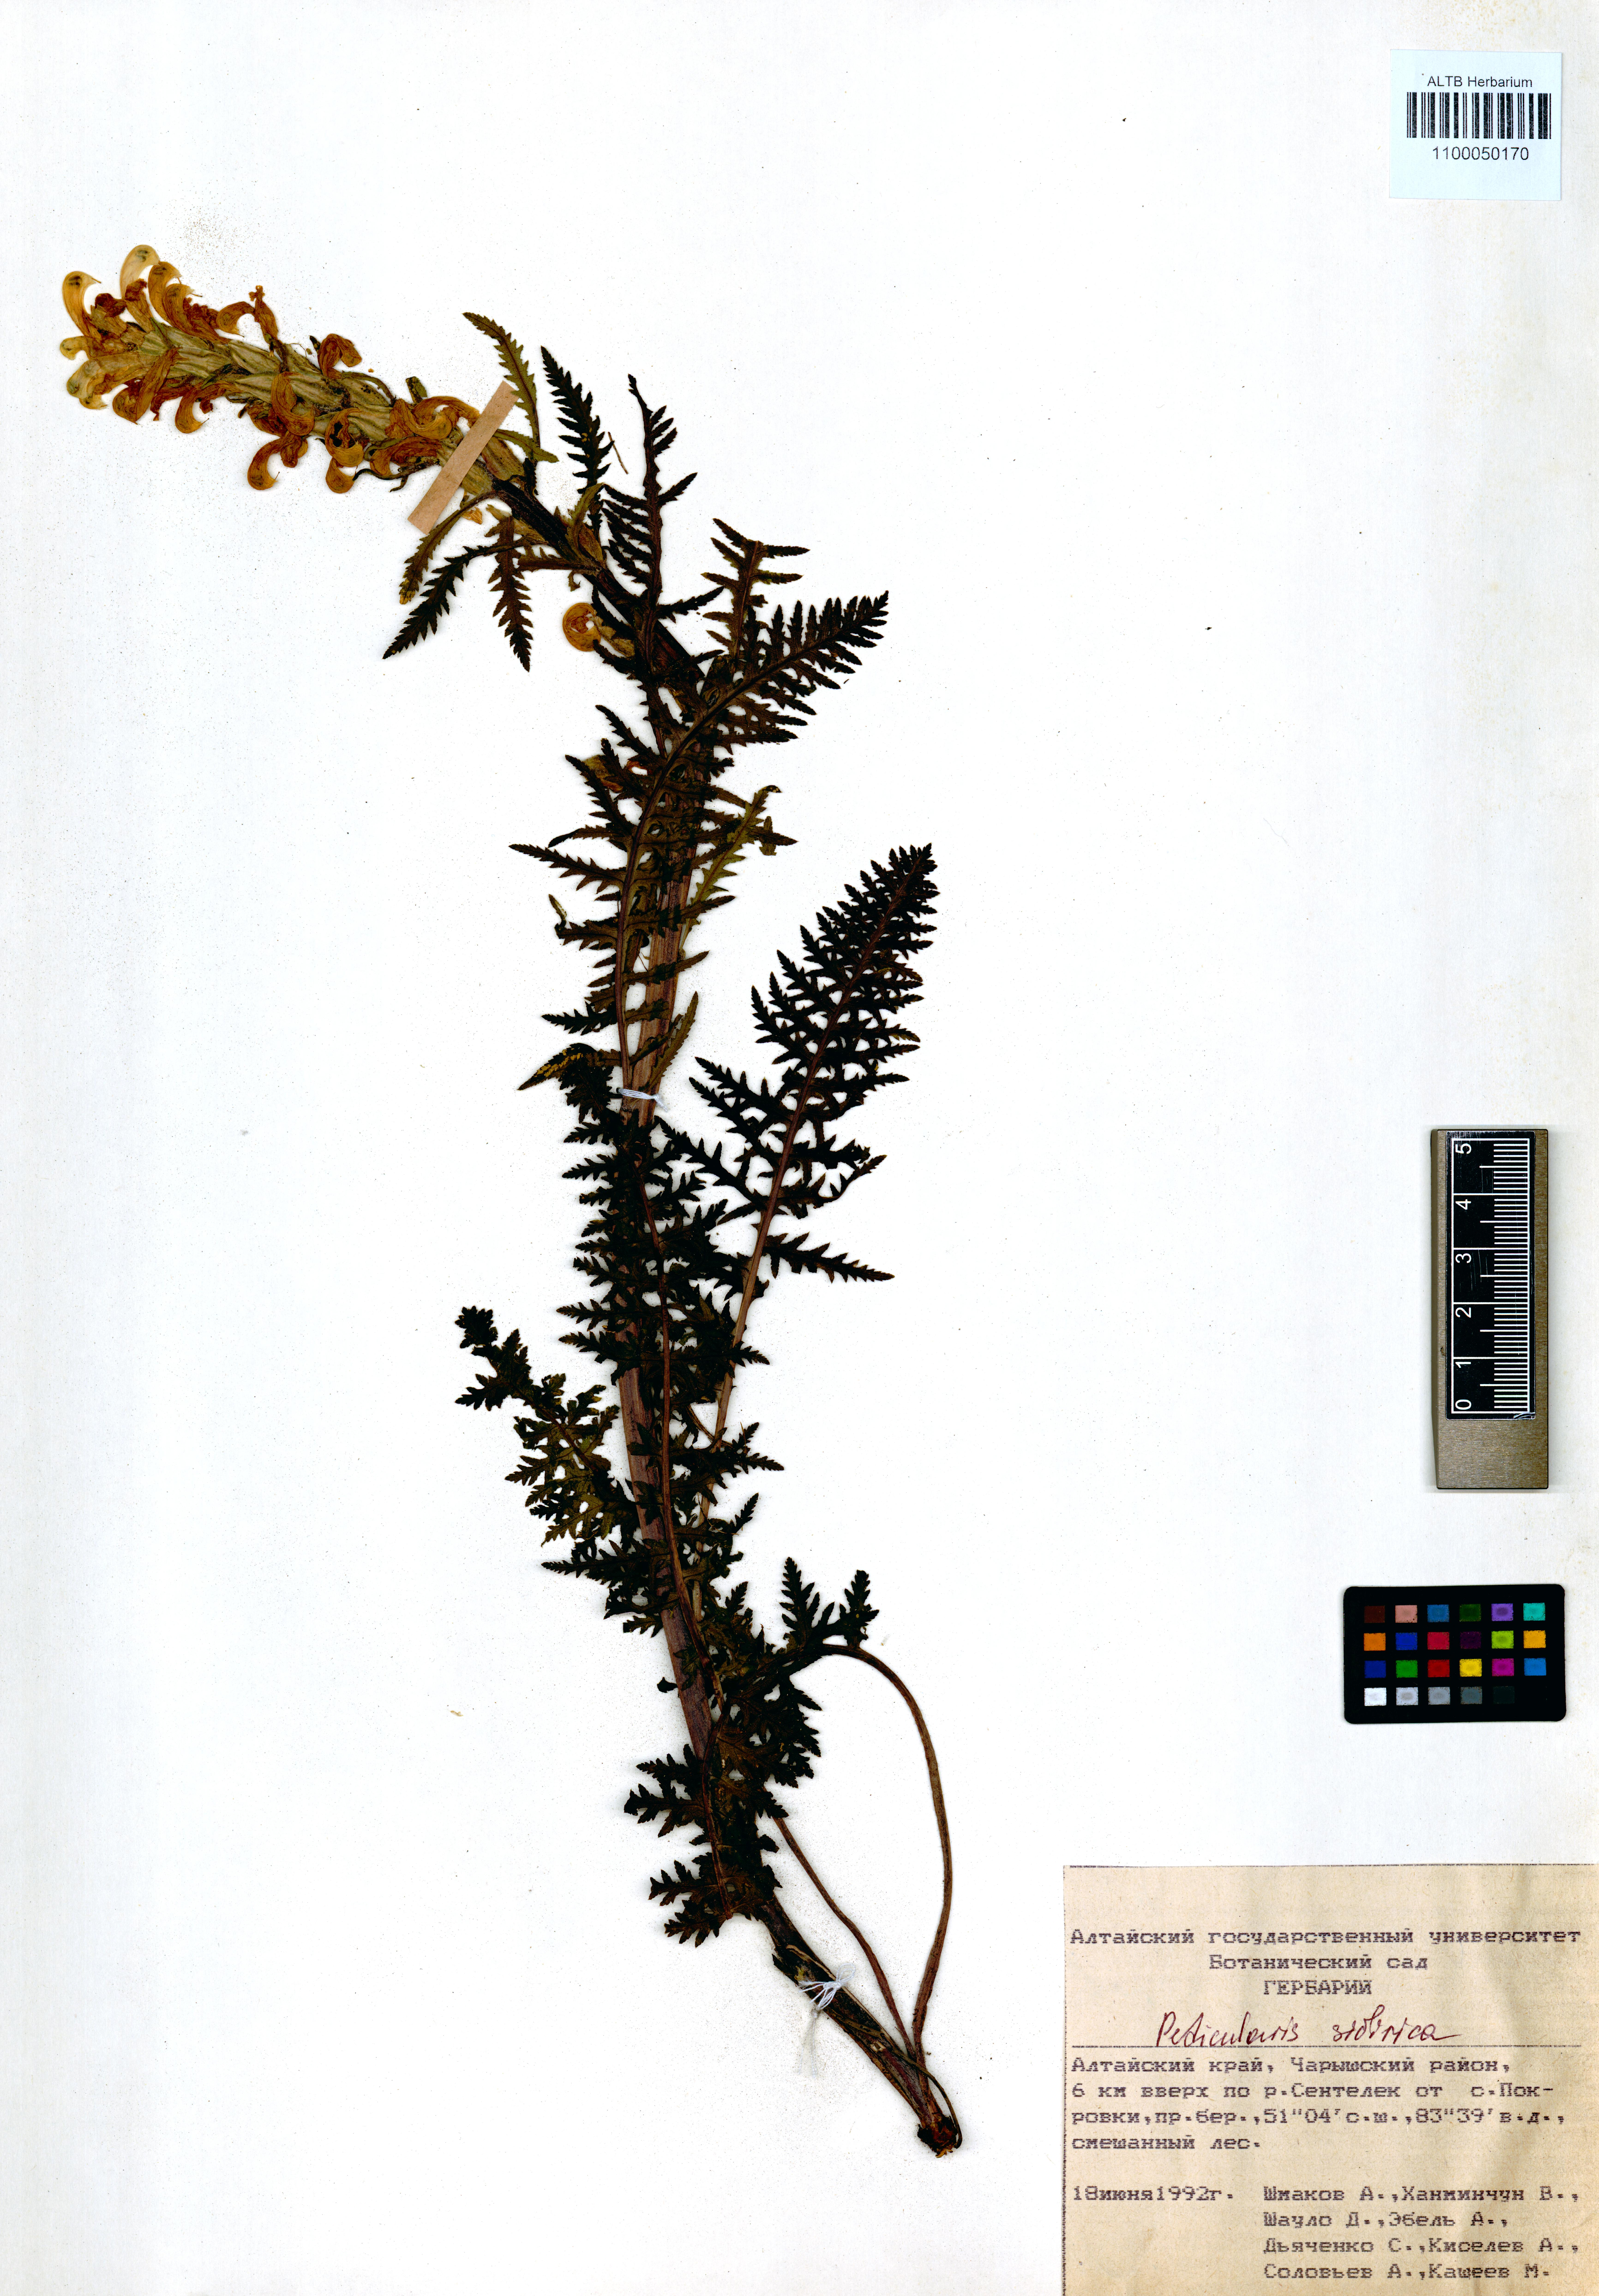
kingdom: Plantae
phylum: Tracheophyta
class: Magnoliopsida
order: Lamiales
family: Orobanchaceae
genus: Pedicularis
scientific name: Pedicularis sibirica
